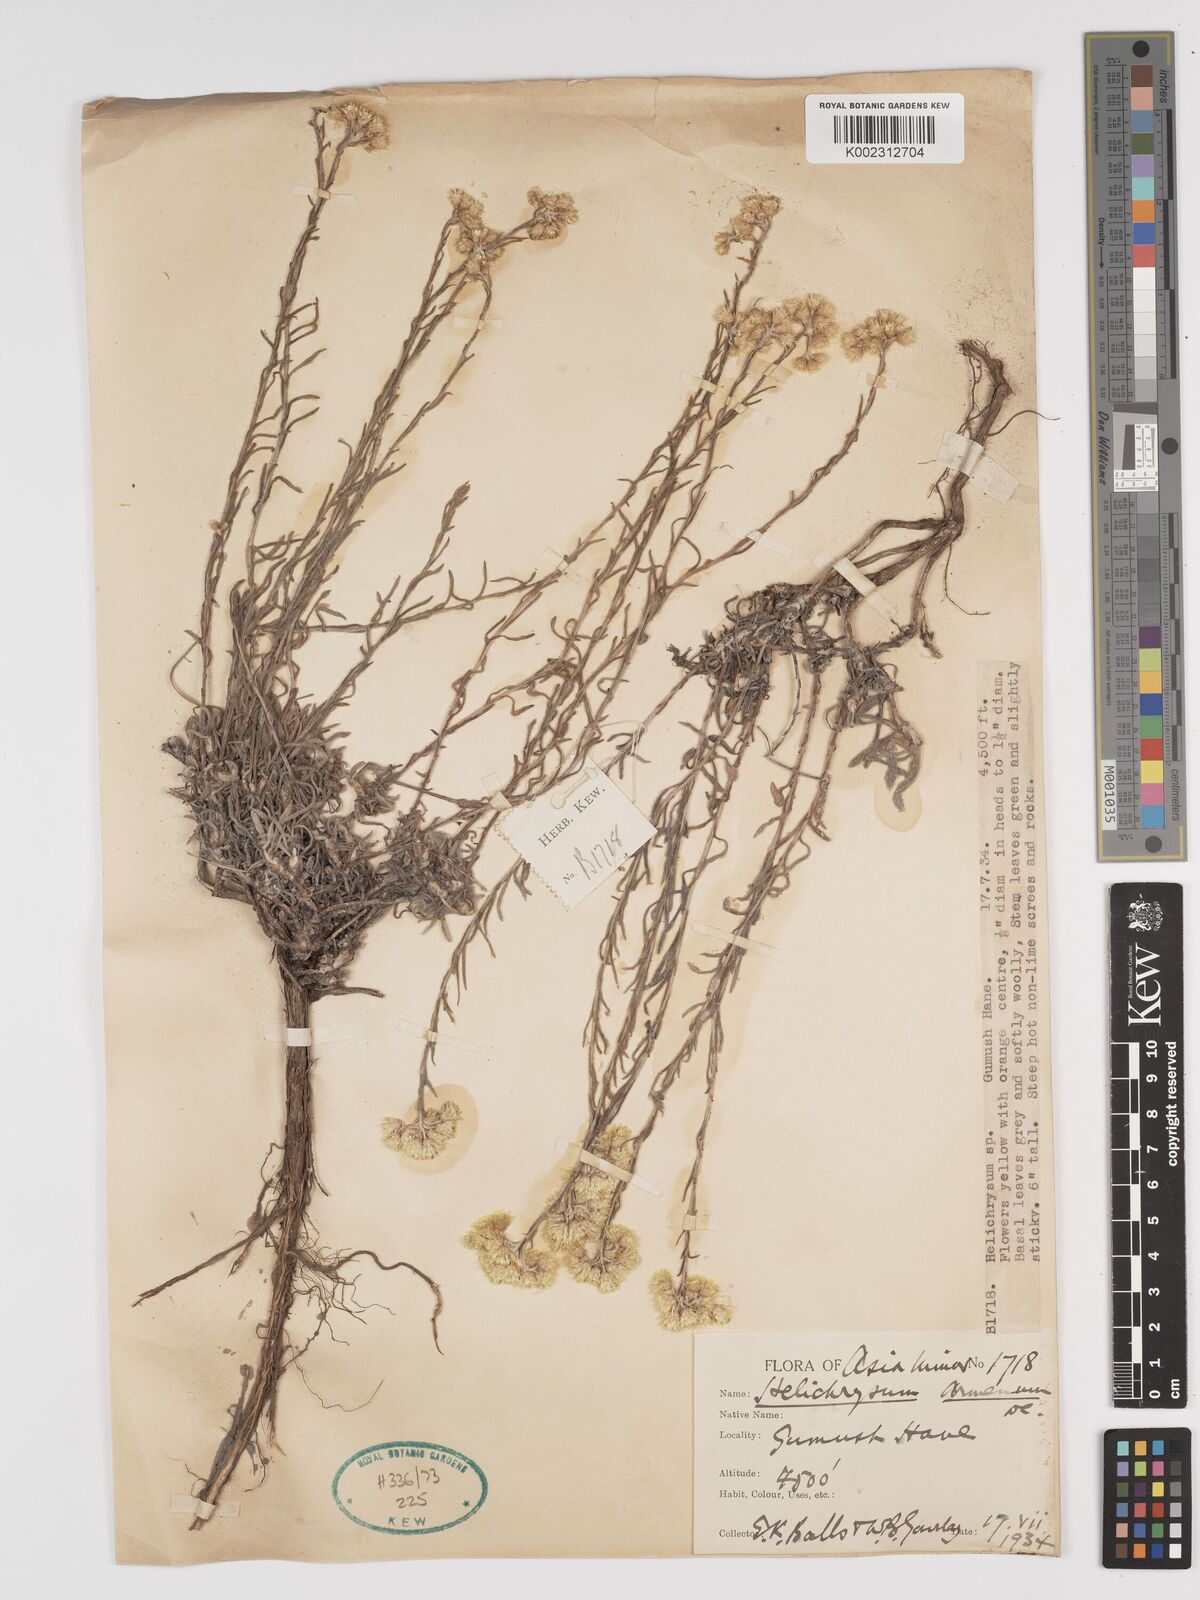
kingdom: Plantae
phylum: Tracheophyta
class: Magnoliopsida
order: Asterales
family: Asteraceae
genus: Helichrysum
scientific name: Helichrysum armenium
